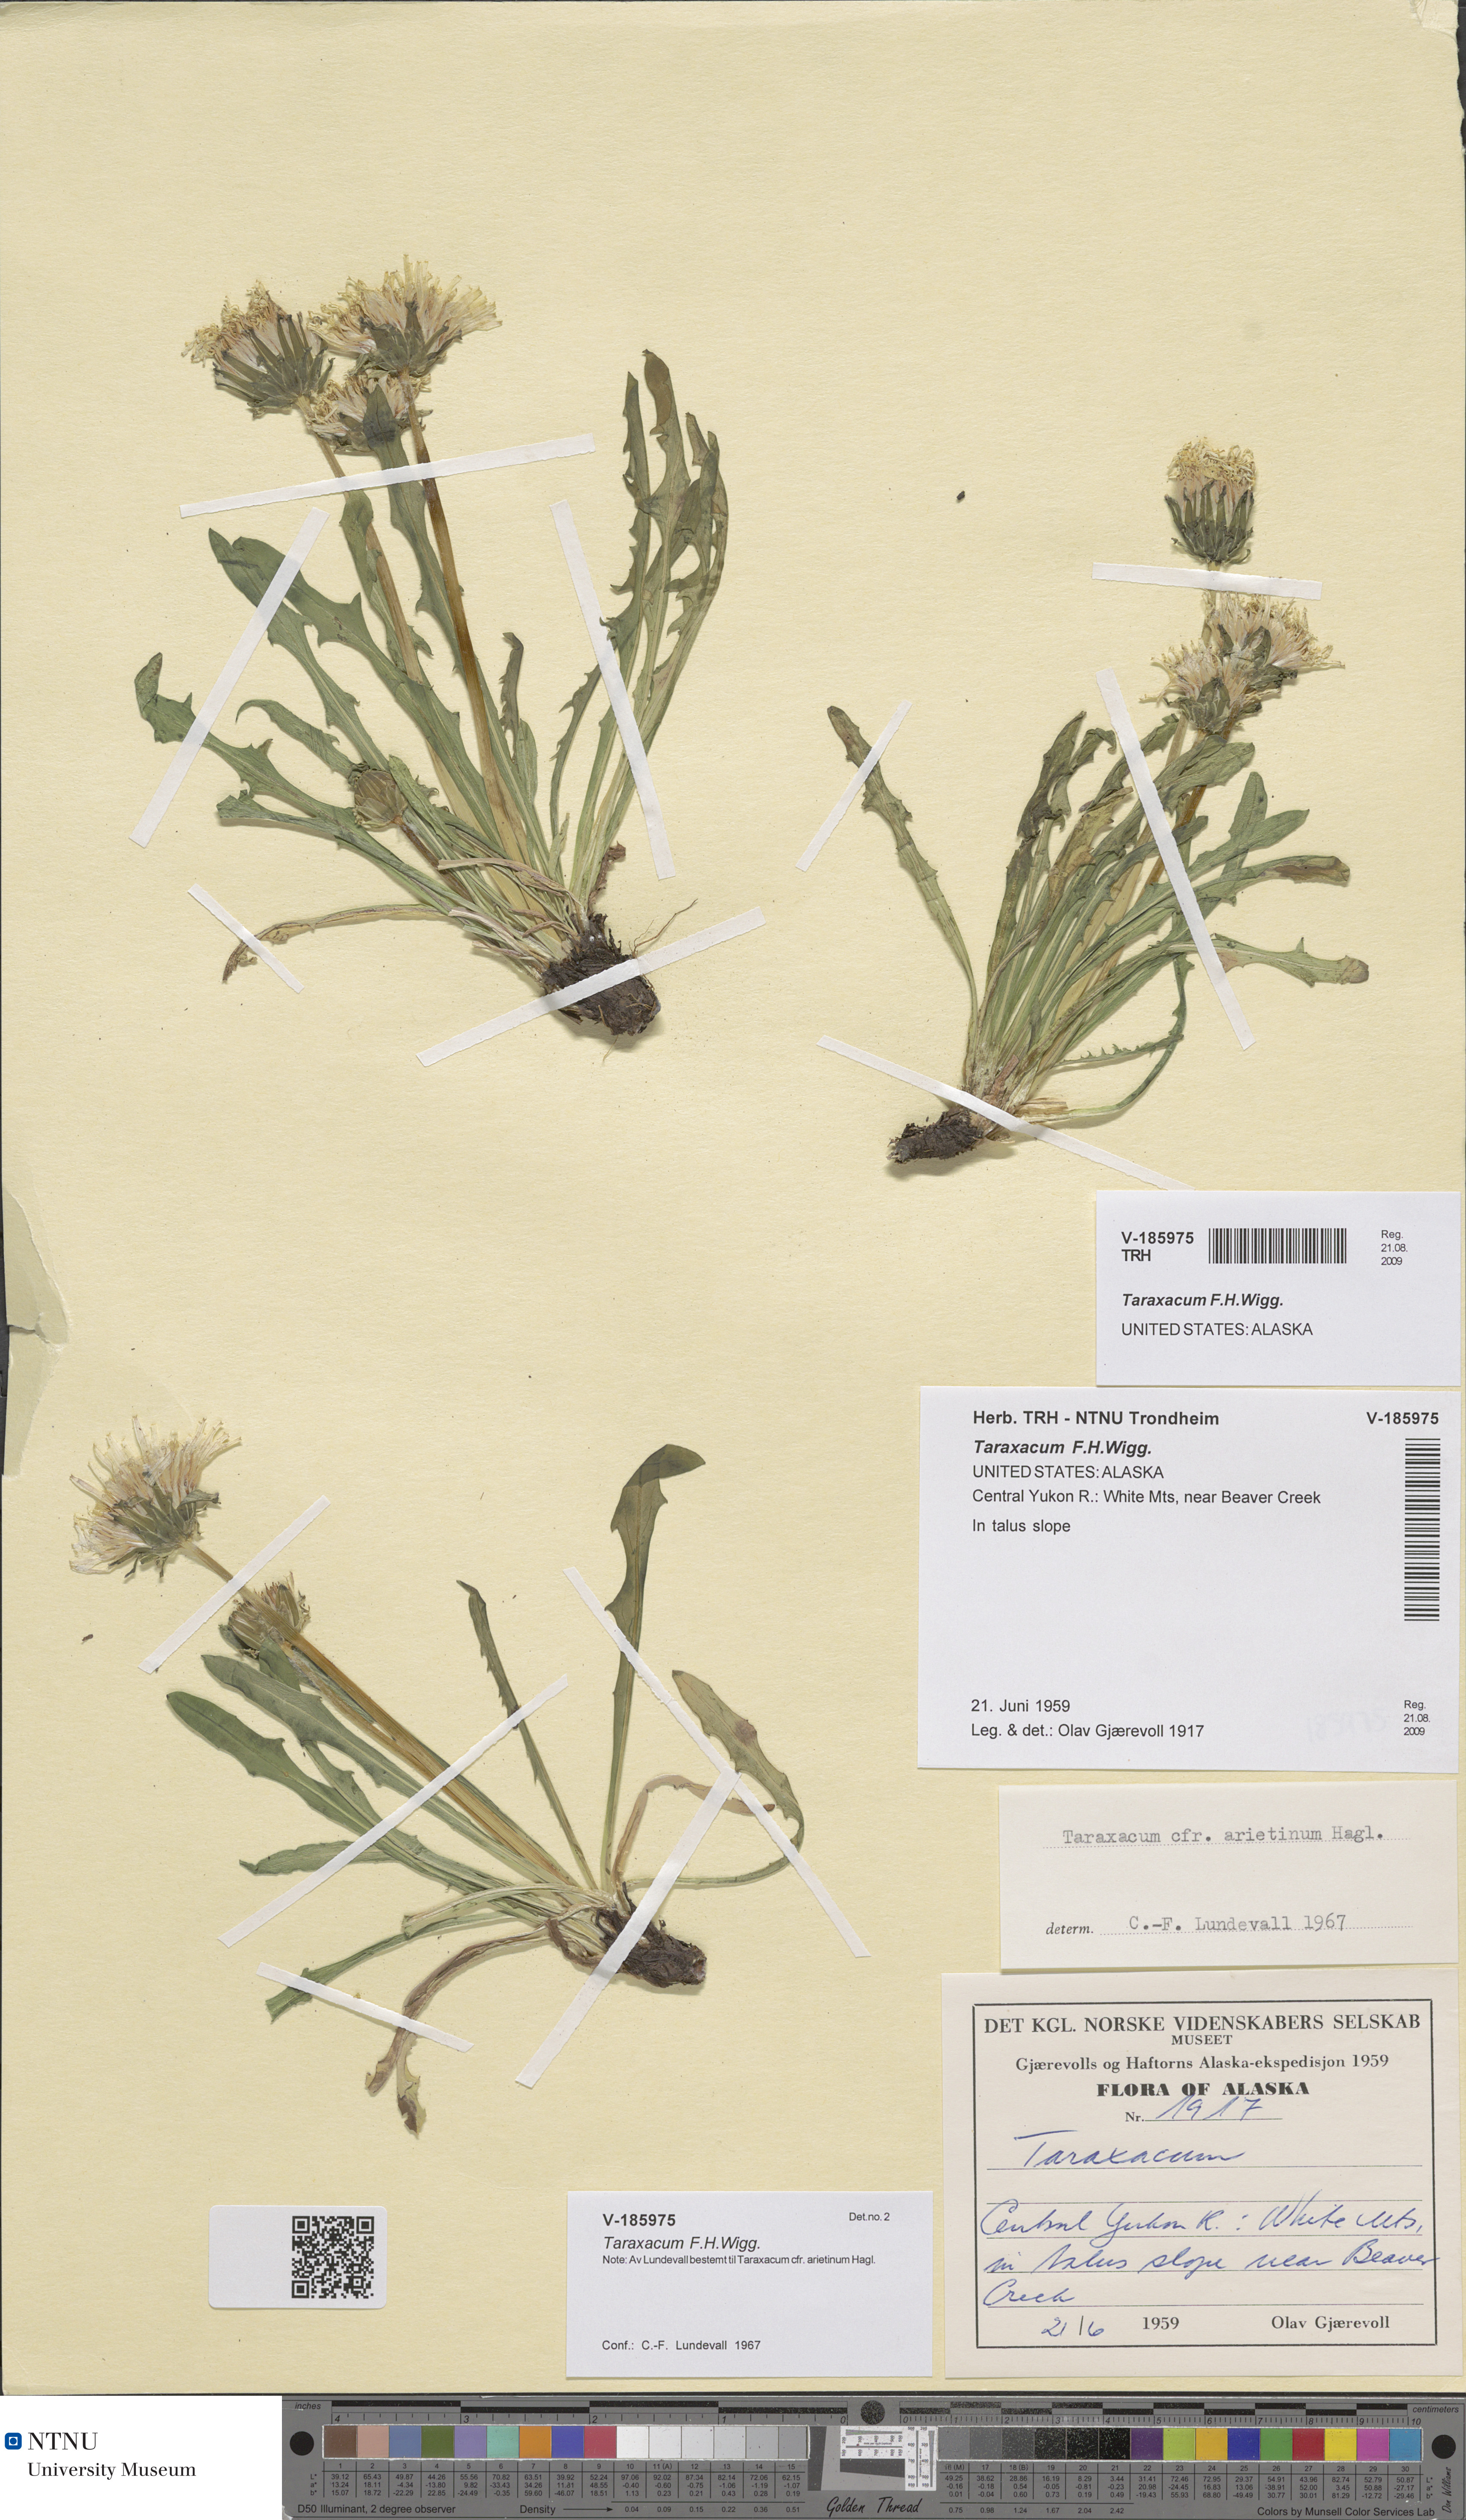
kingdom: Plantae
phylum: Tracheophyta
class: Magnoliopsida
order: Asterales
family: Asteraceae
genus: Taraxacum
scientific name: Taraxacum
